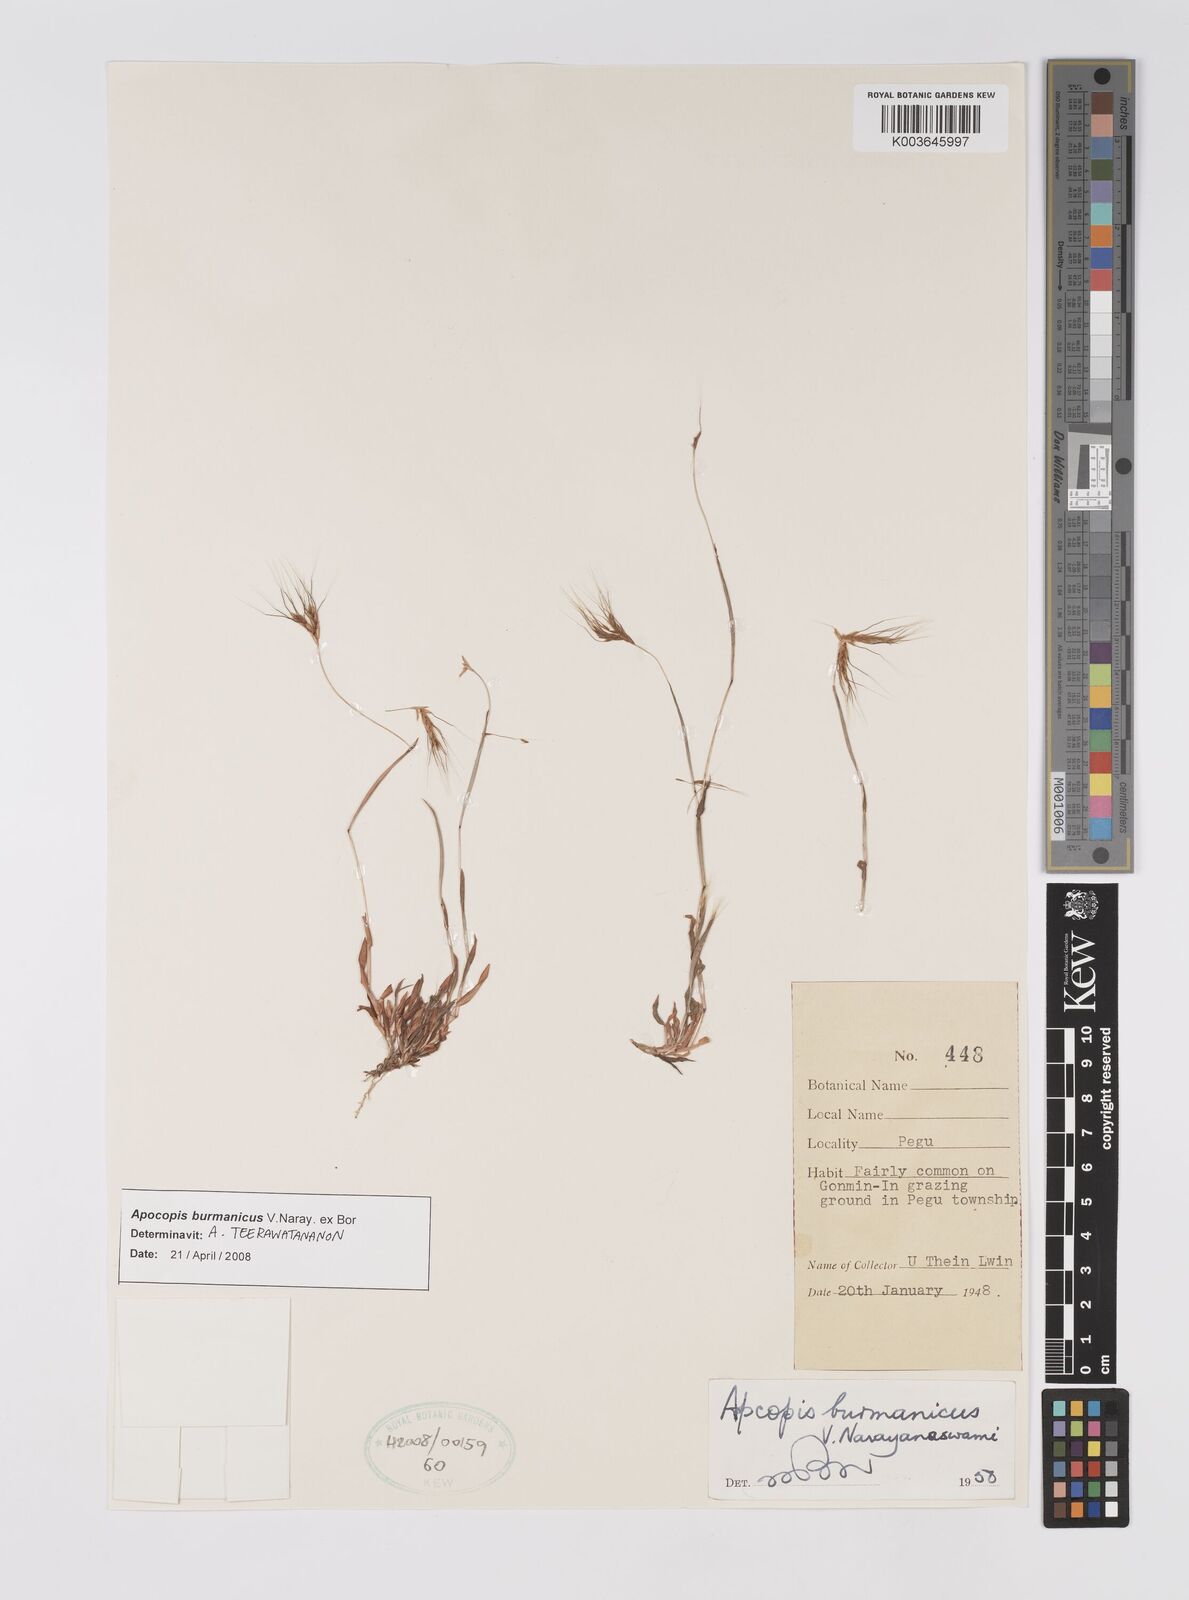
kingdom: Plantae
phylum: Tracheophyta
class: Liliopsida
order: Poales
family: Poaceae
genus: Apocopis
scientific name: Apocopis burmanicus
